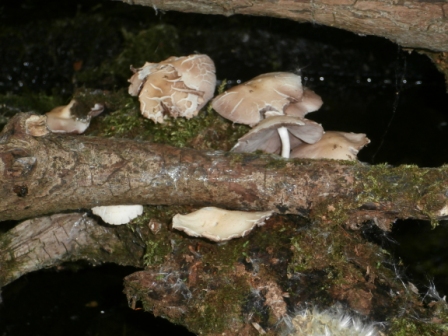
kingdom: Fungi
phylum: Basidiomycota
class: Agaricomycetes
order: Agaricales
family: Psathyrellaceae
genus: Candolleomyces
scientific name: Candolleomyces candolleanus
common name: Candolles mørkhat
